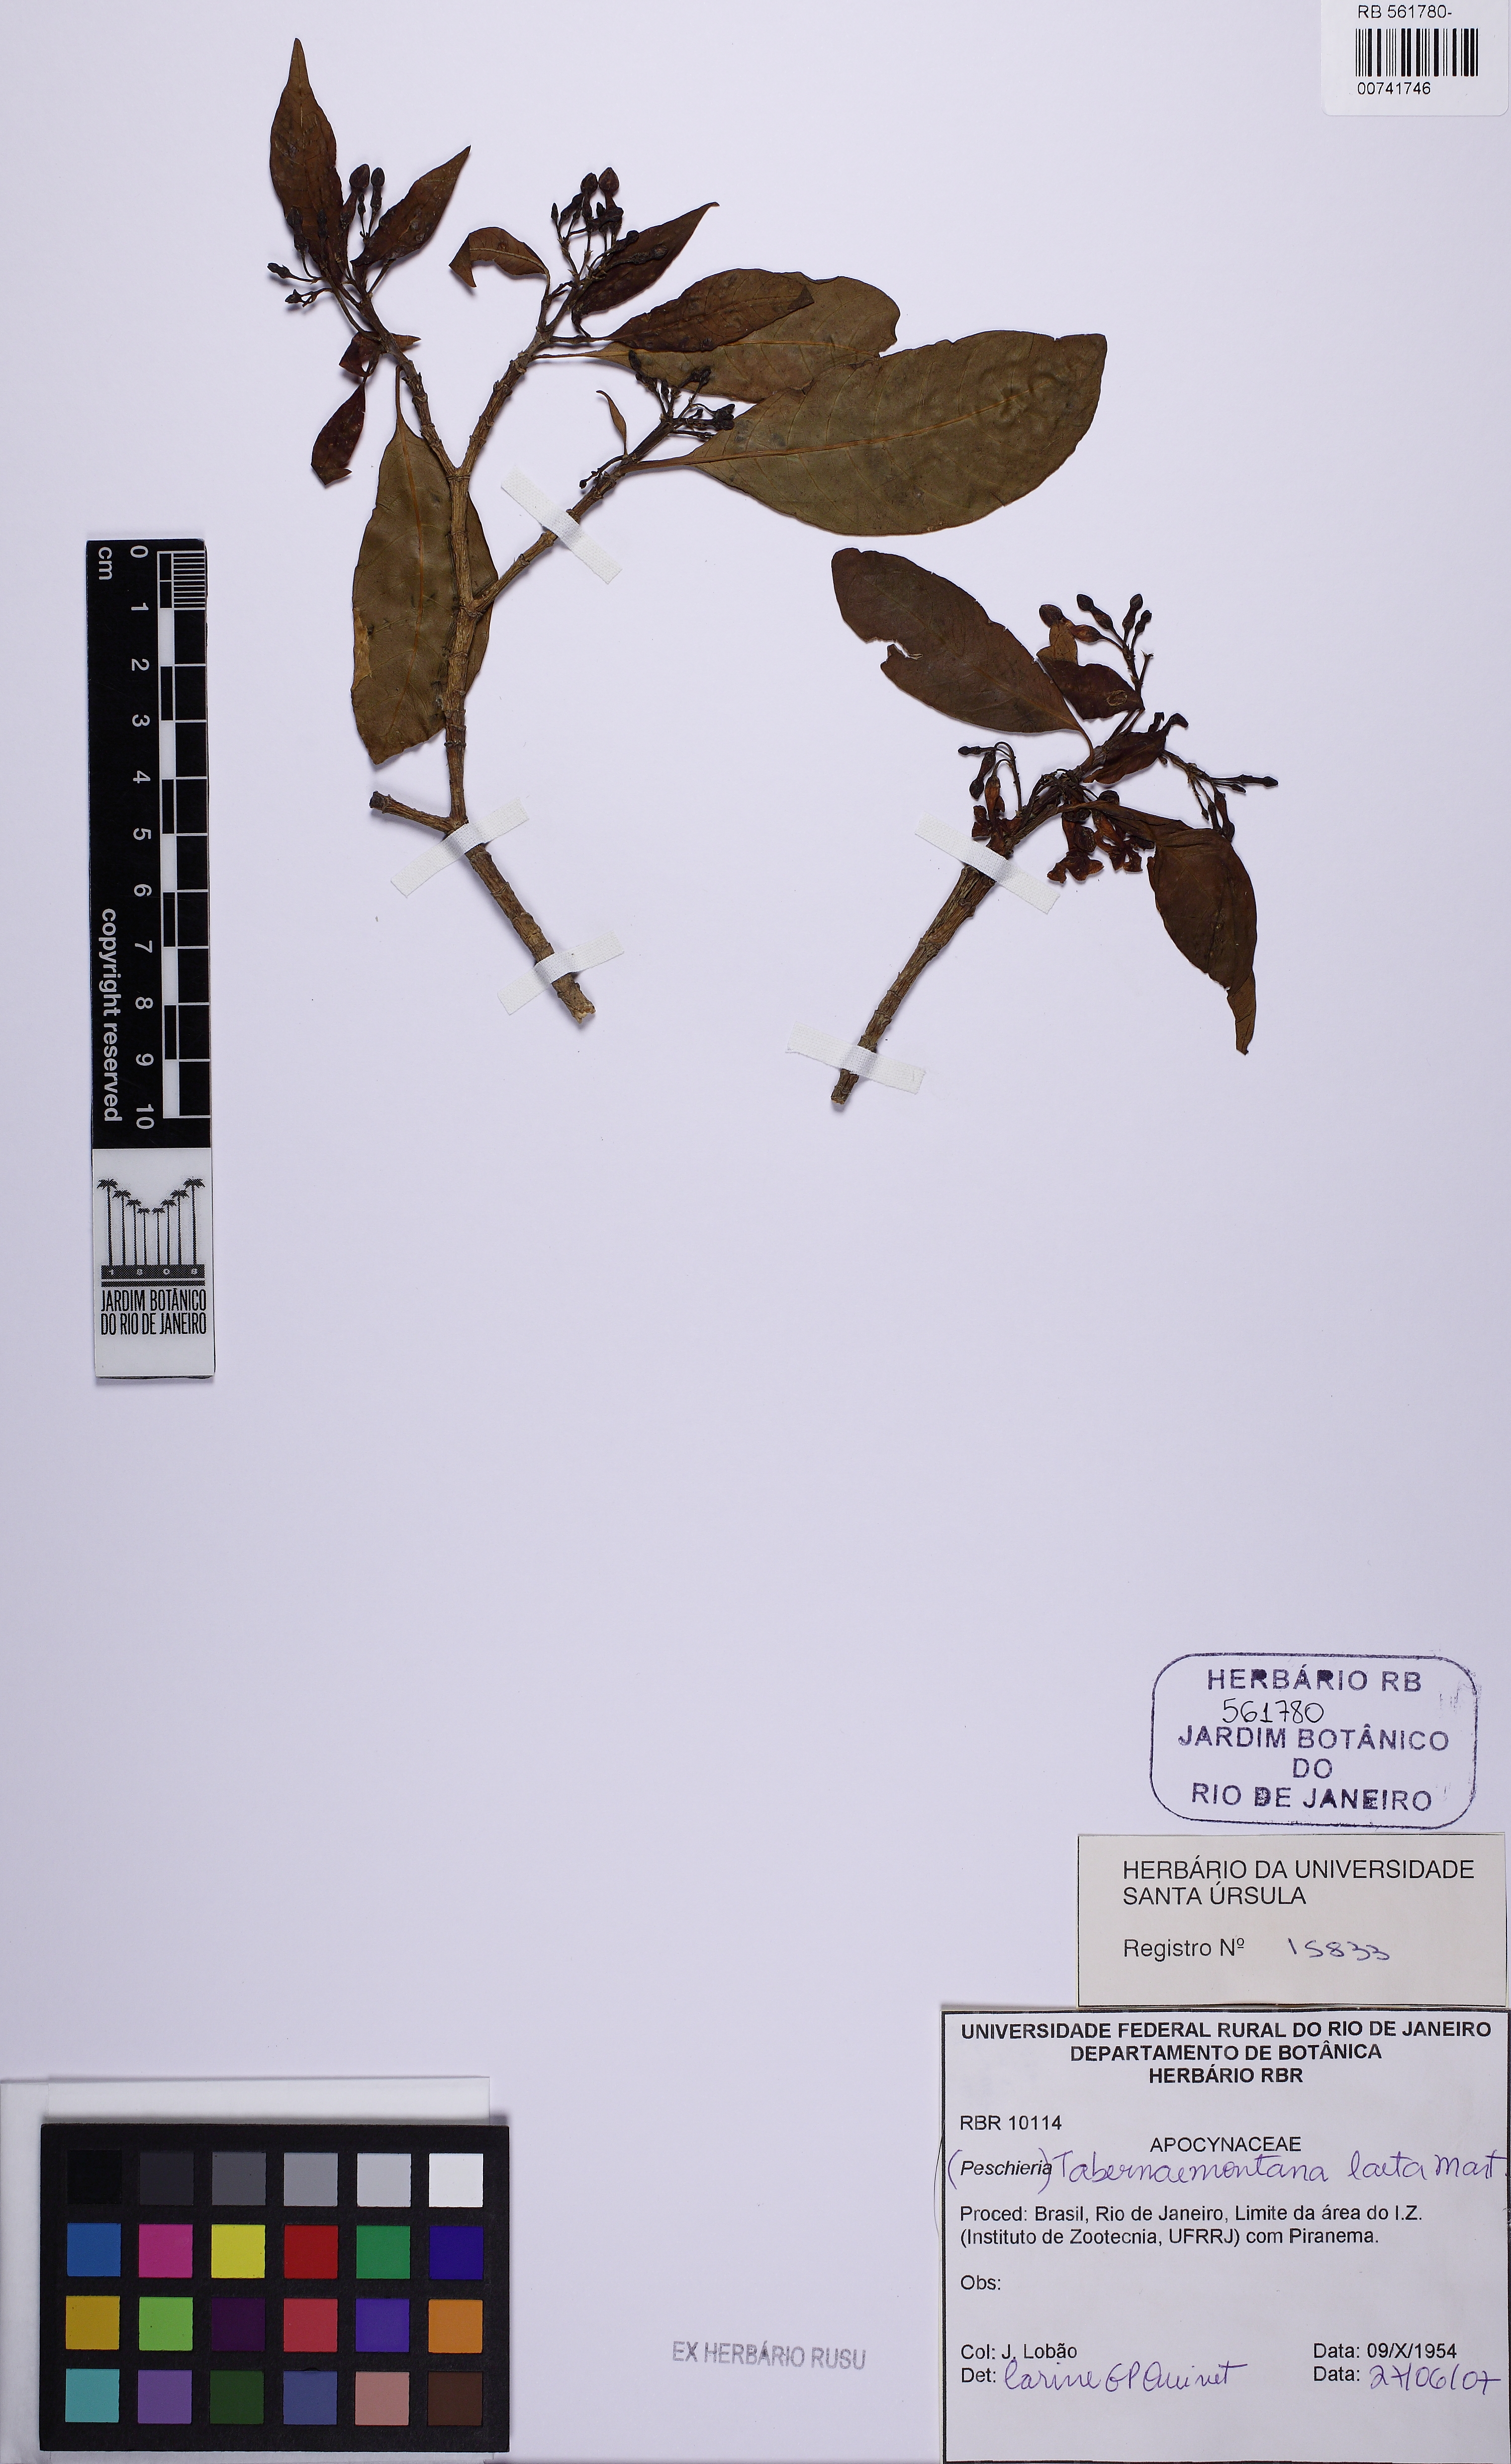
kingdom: Plantae
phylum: Tracheophyta
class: Magnoliopsida
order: Gentianales
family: Apocynaceae
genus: Tabernaemontana
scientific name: Tabernaemontana laeta
